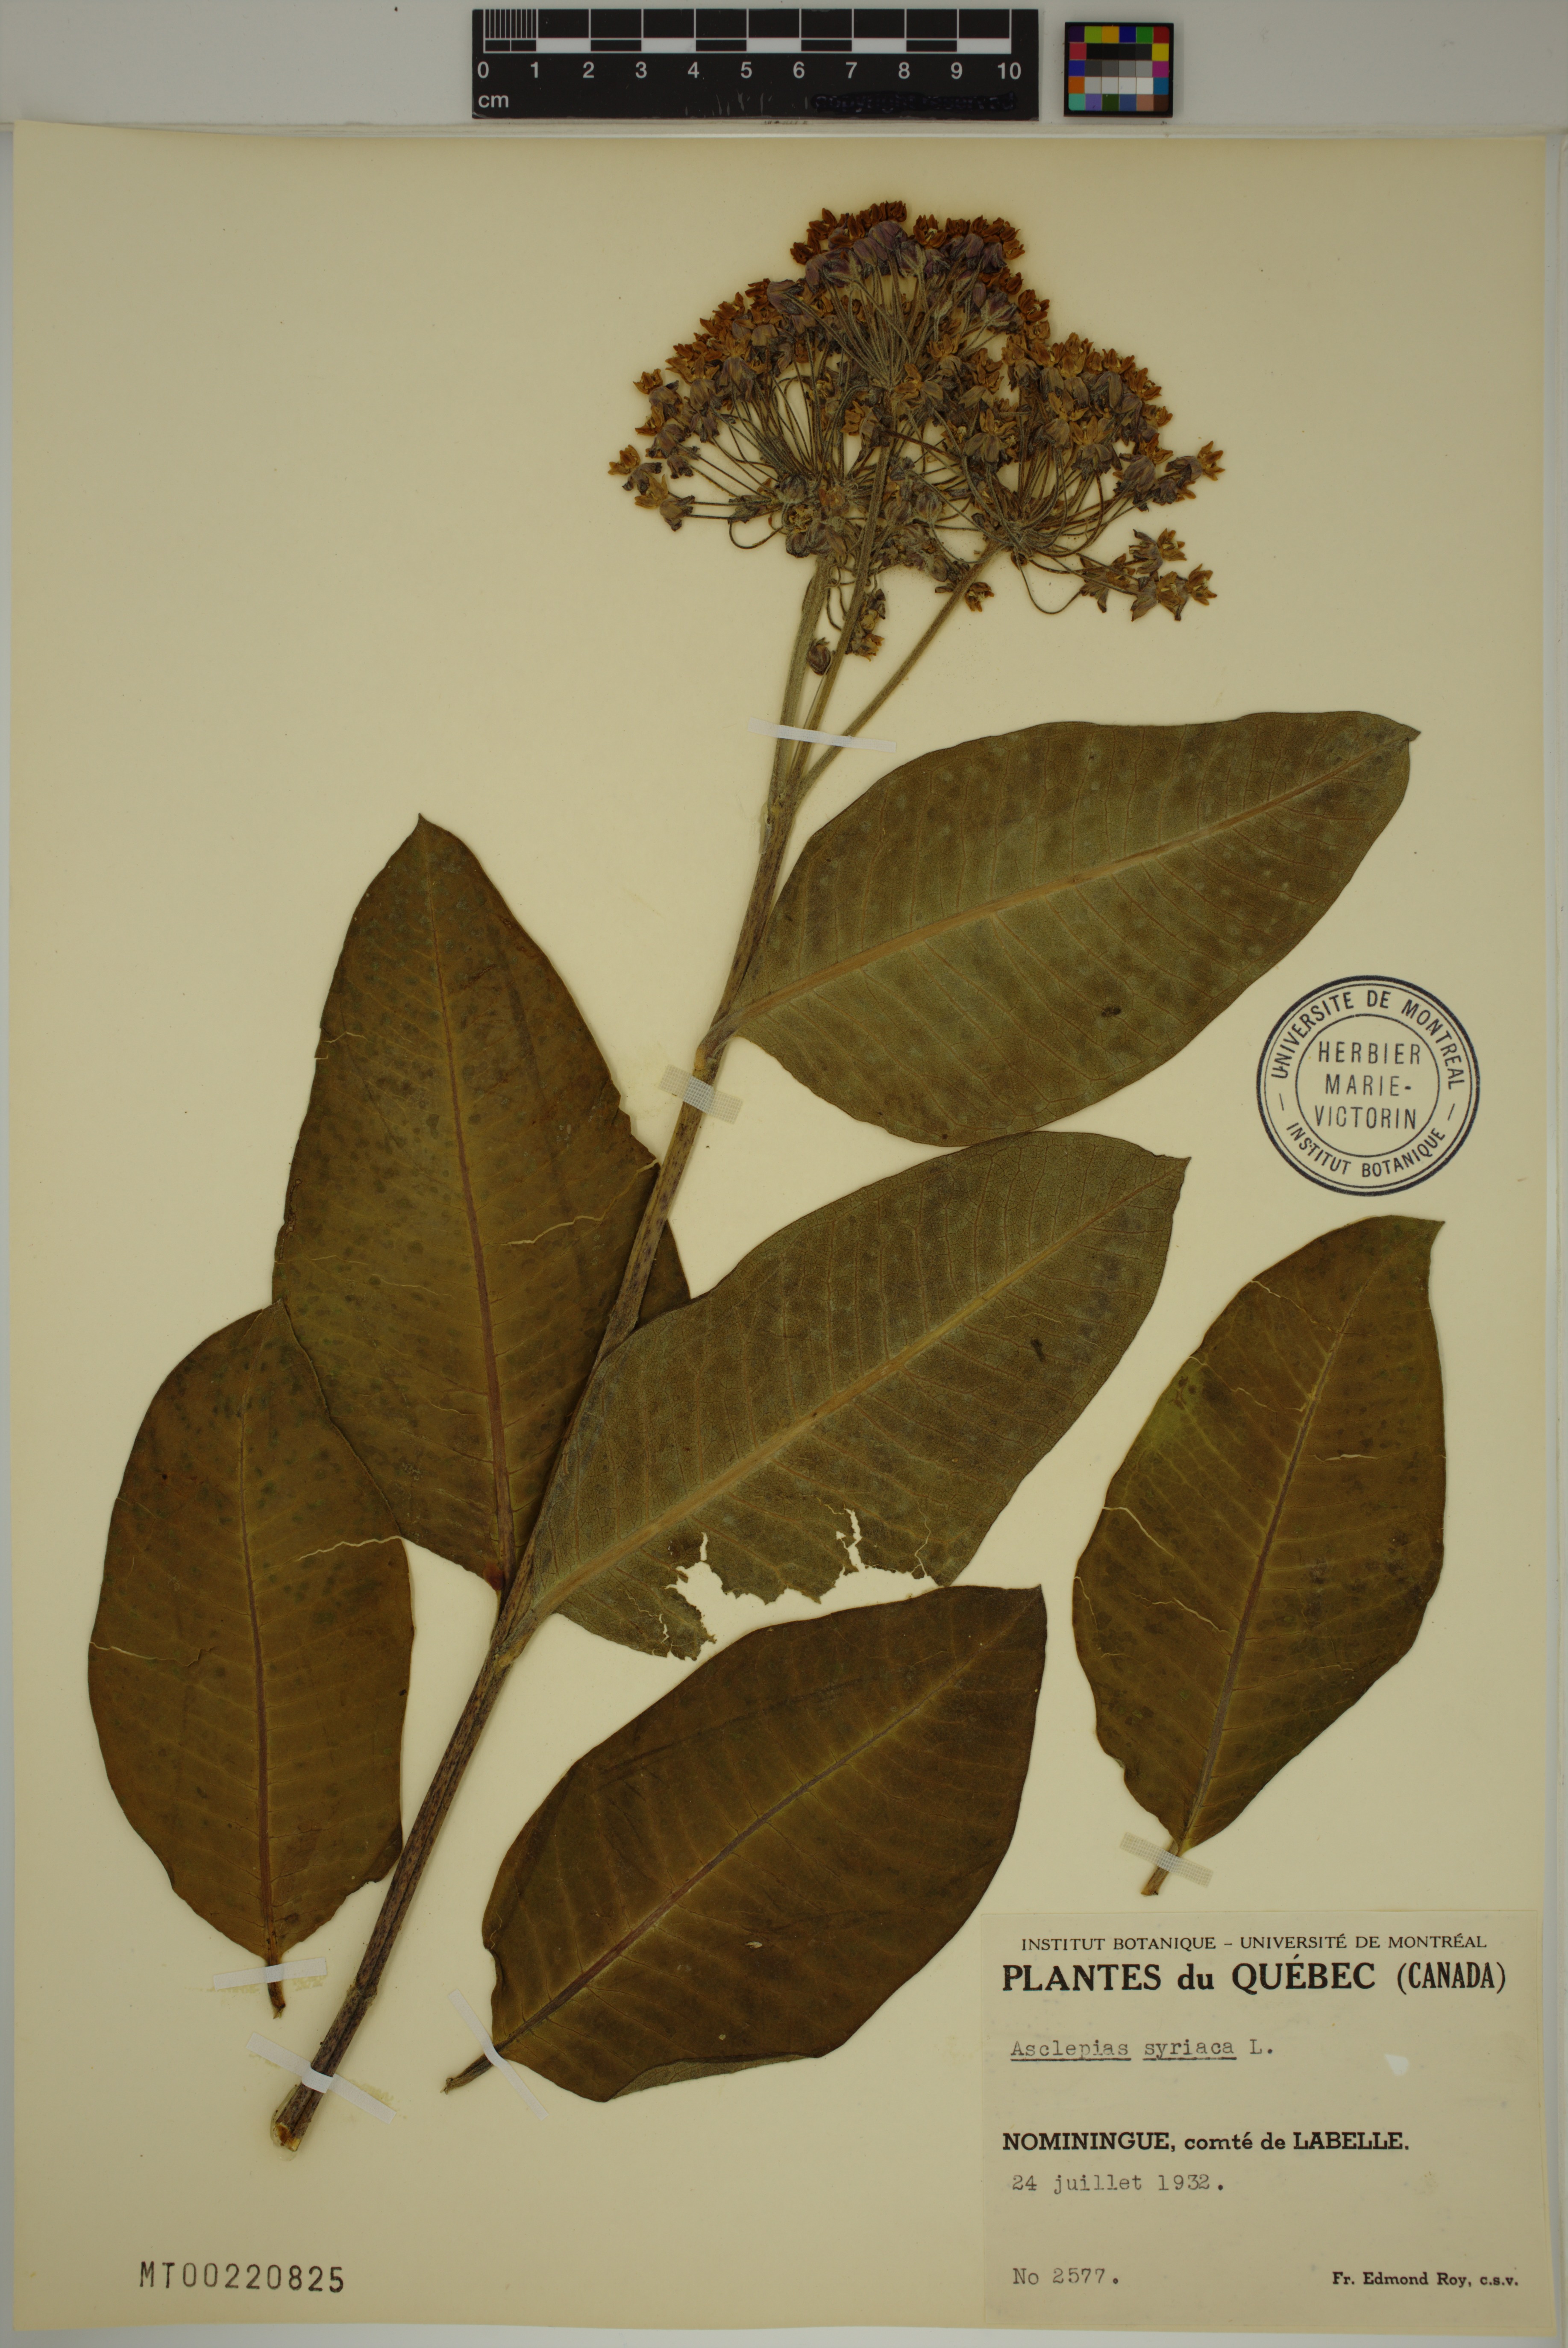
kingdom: Plantae
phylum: Tracheophyta
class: Magnoliopsida
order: Gentianales
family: Apocynaceae
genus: Asclepias
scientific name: Asclepias syriaca
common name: Common milkweed
